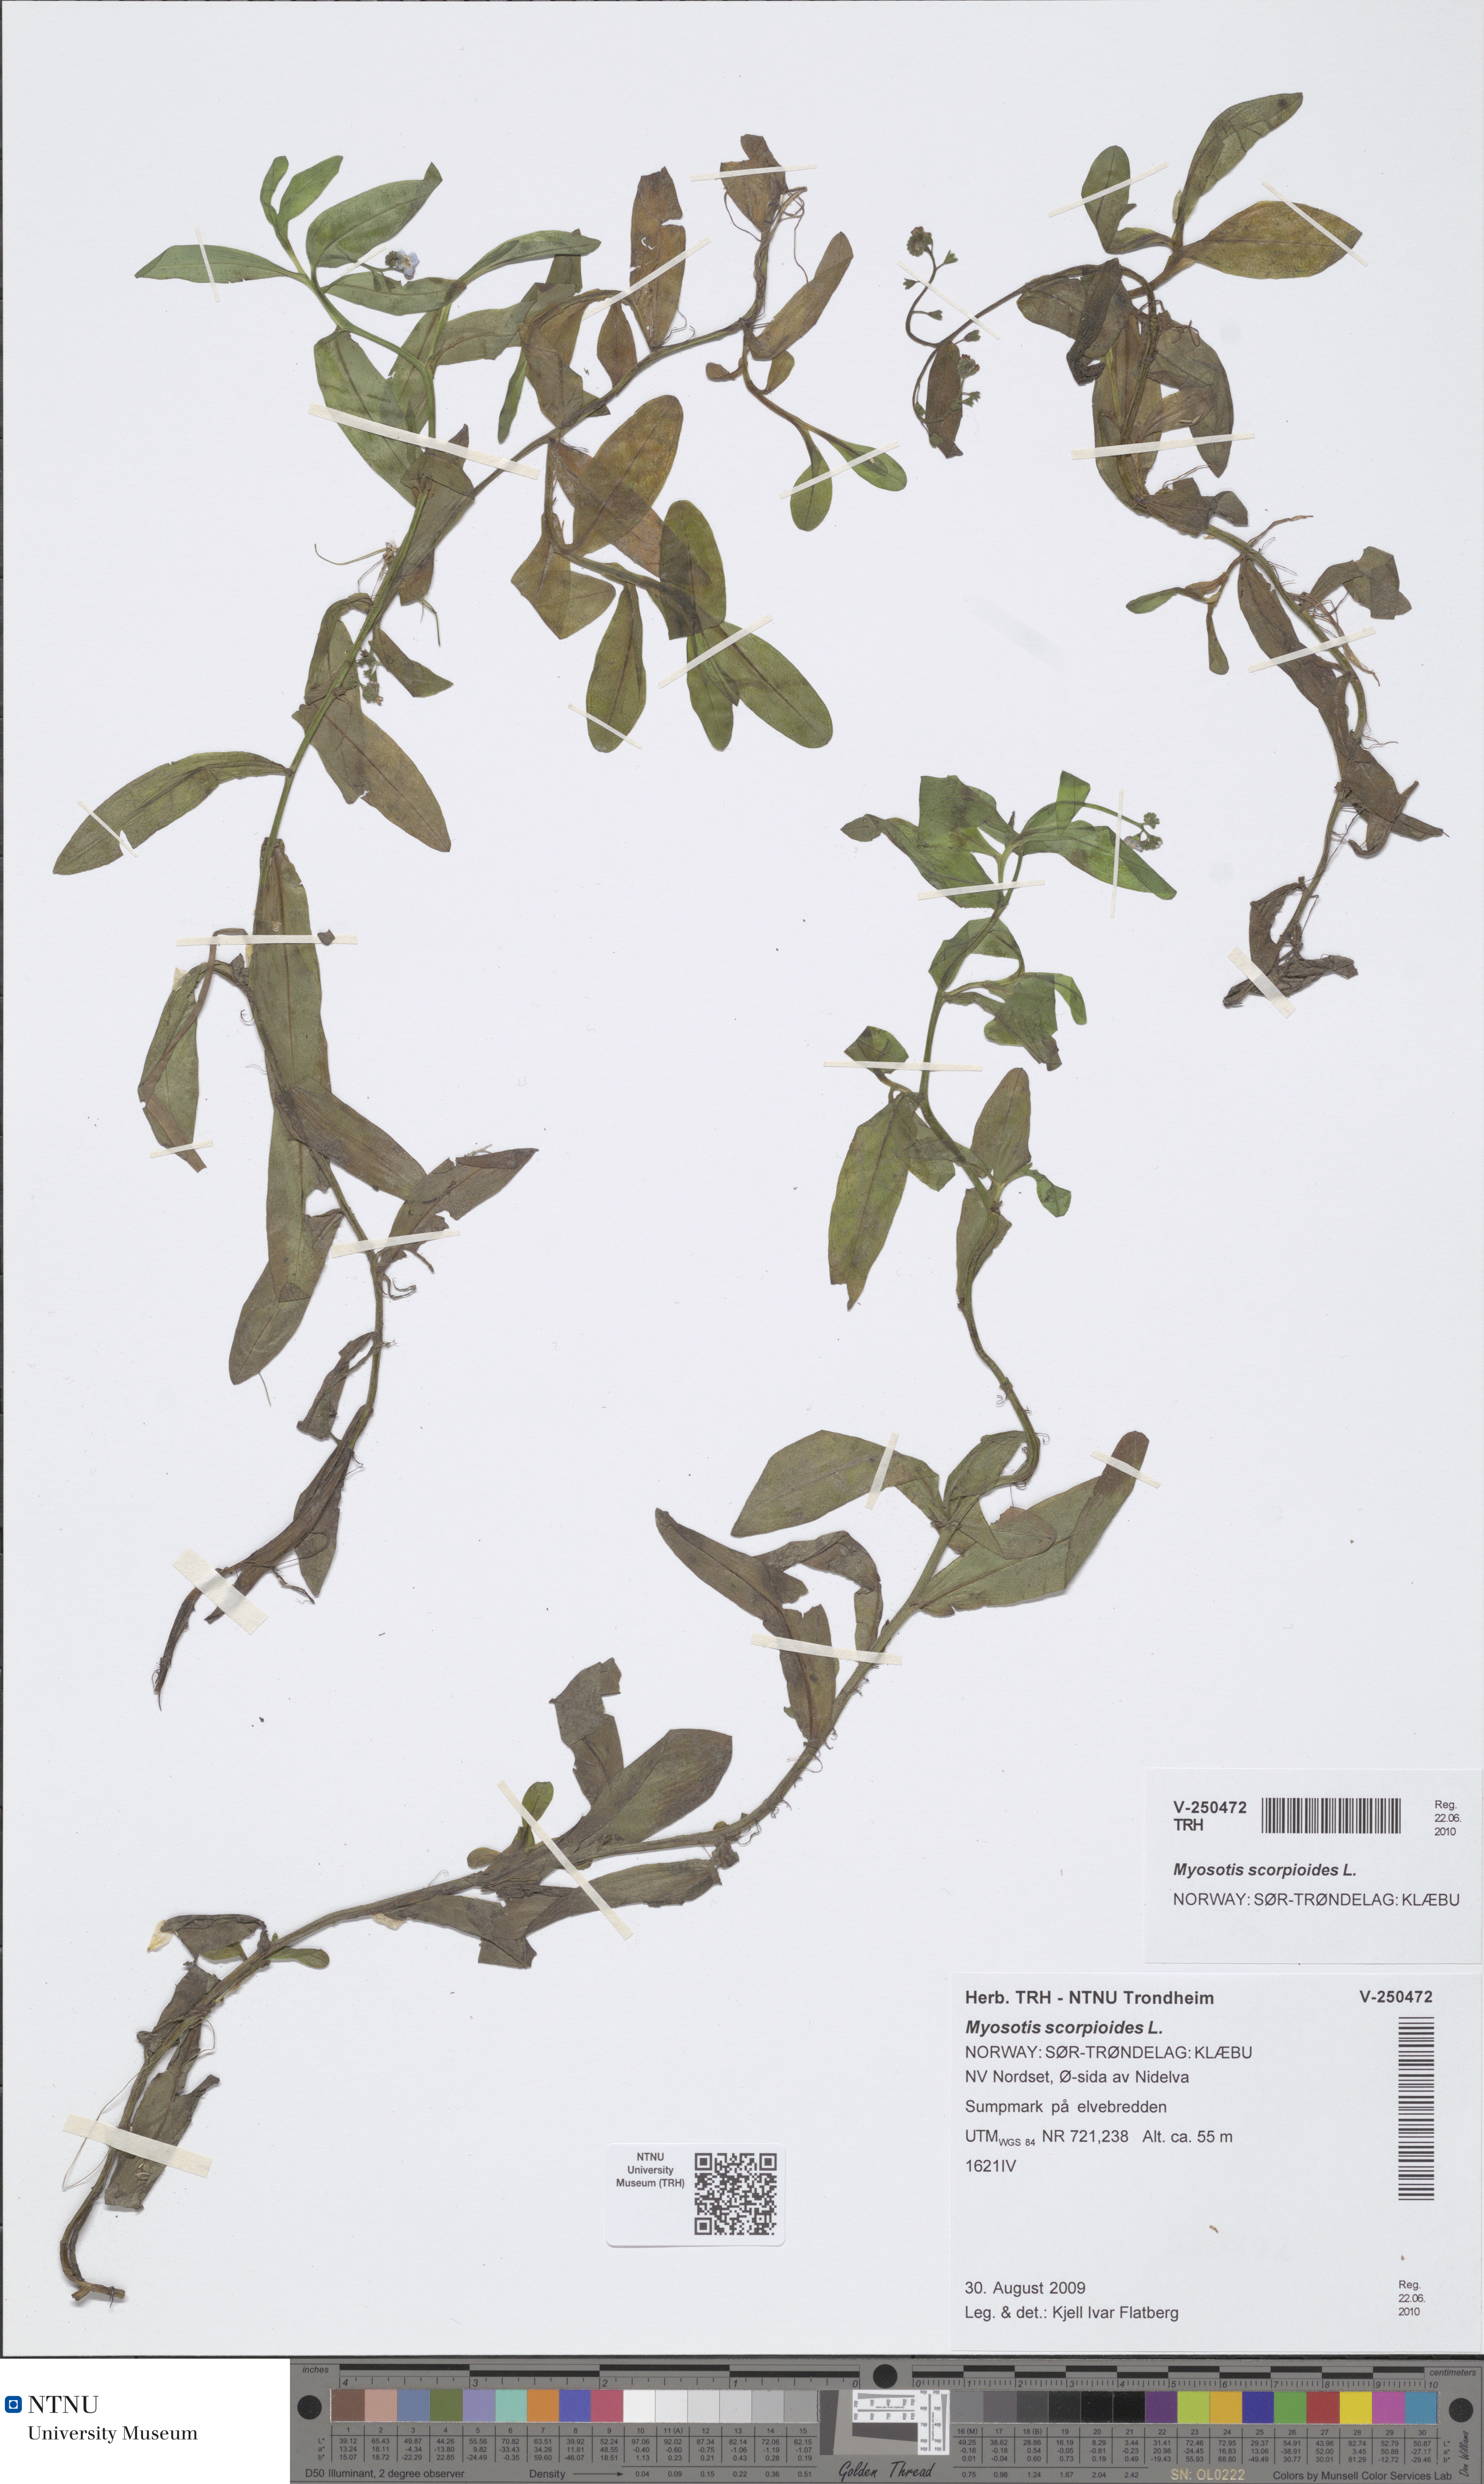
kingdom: Plantae
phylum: Tracheophyta
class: Magnoliopsida
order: Boraginales
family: Boraginaceae
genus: Myosotis
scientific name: Myosotis scorpioides
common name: Water forget-me-not
